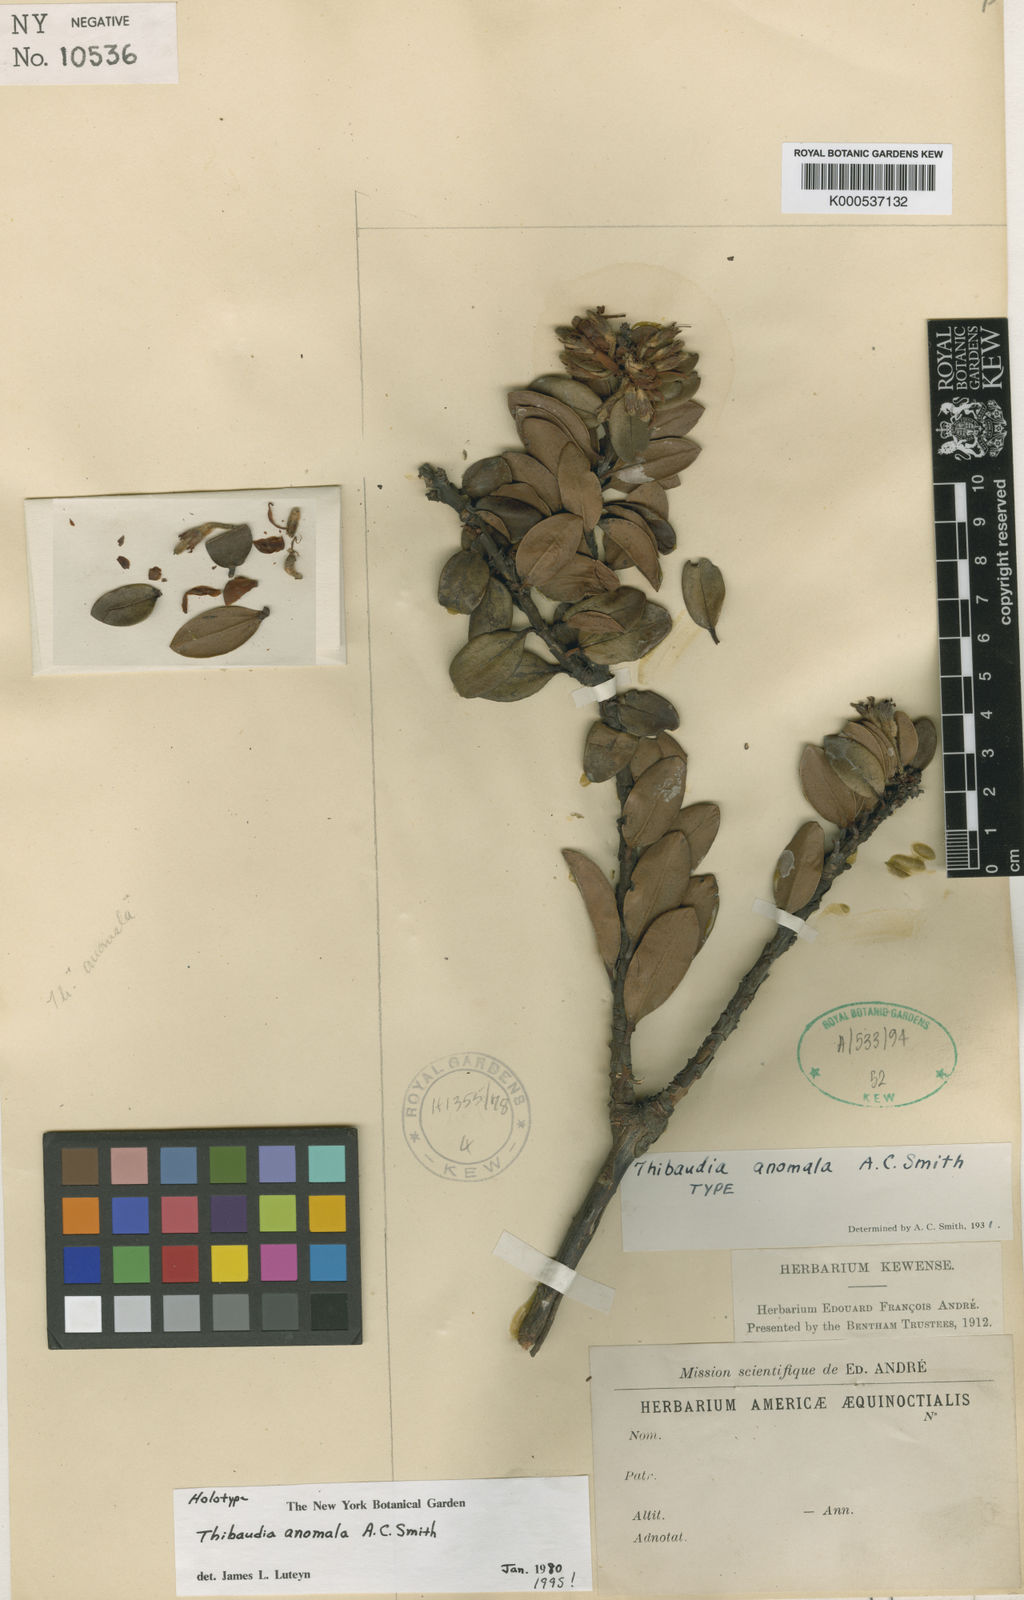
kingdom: Plantae
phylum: Tracheophyta
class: Magnoliopsida
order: Ericales
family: Ericaceae
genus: Thibaudia
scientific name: Thibaudia anomala
